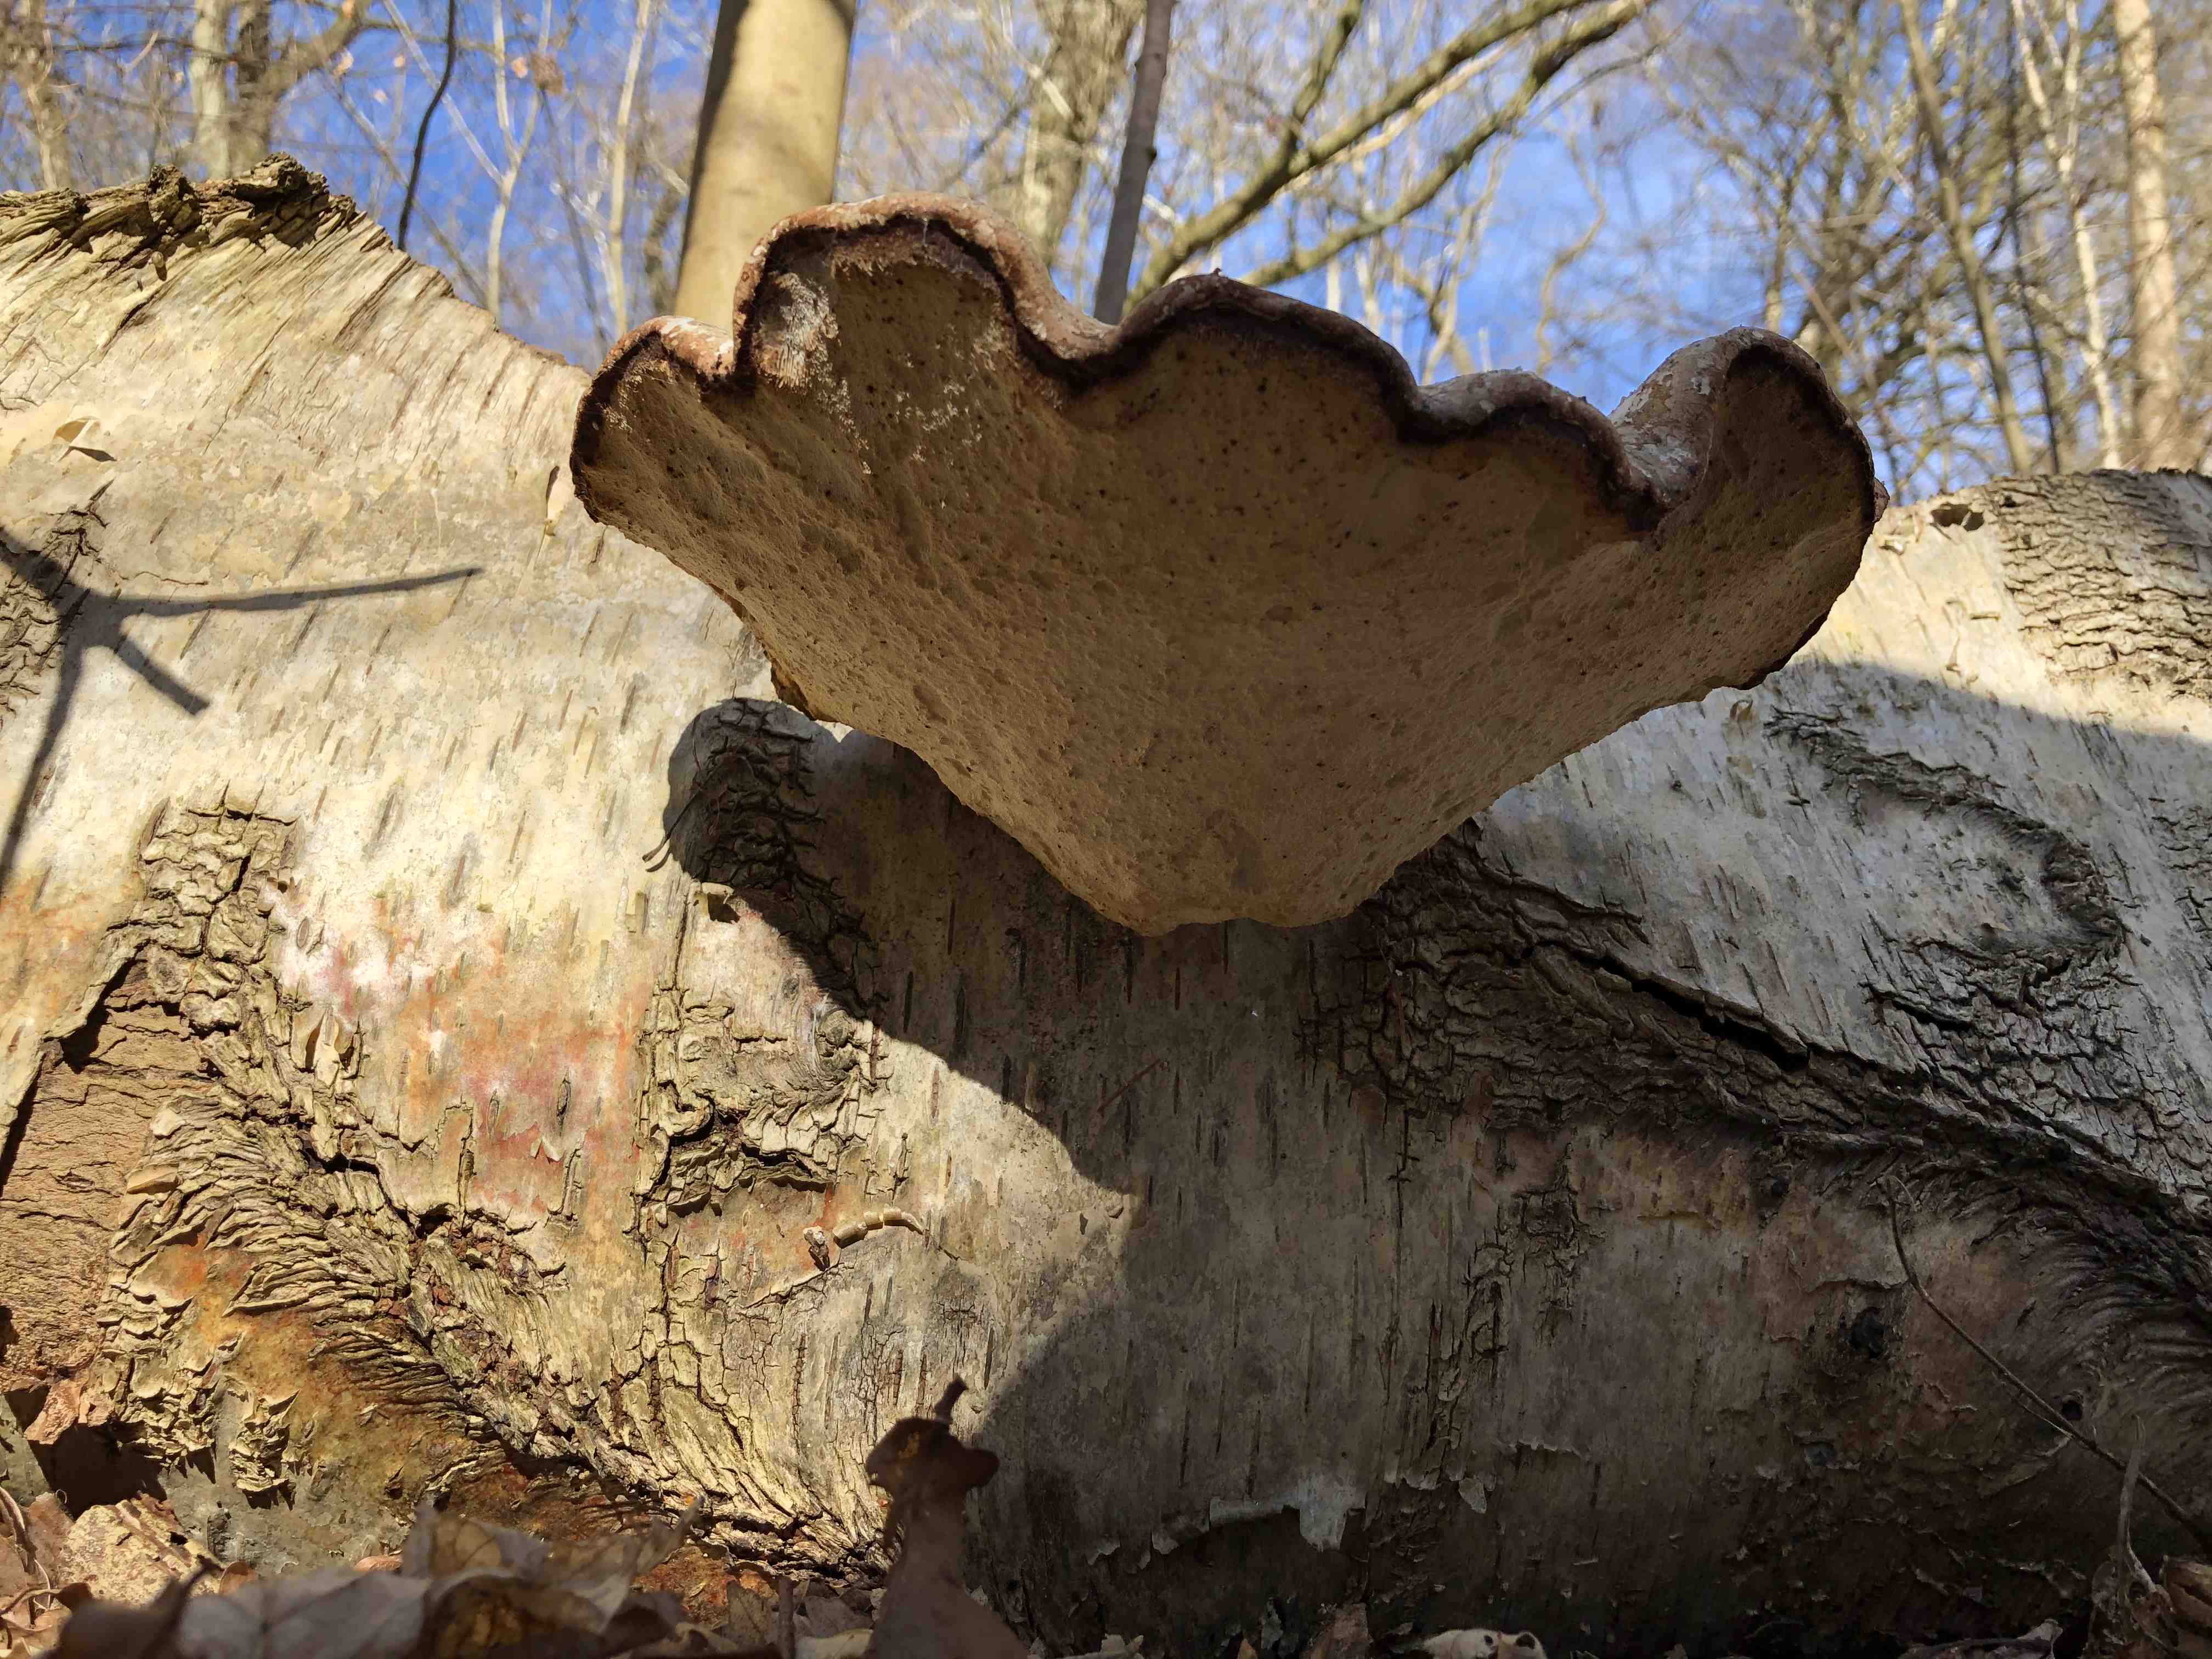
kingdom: Fungi
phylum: Basidiomycota
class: Agaricomycetes
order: Polyporales
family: Fomitopsidaceae
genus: Fomitopsis
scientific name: Fomitopsis betulina
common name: birkeporesvamp
